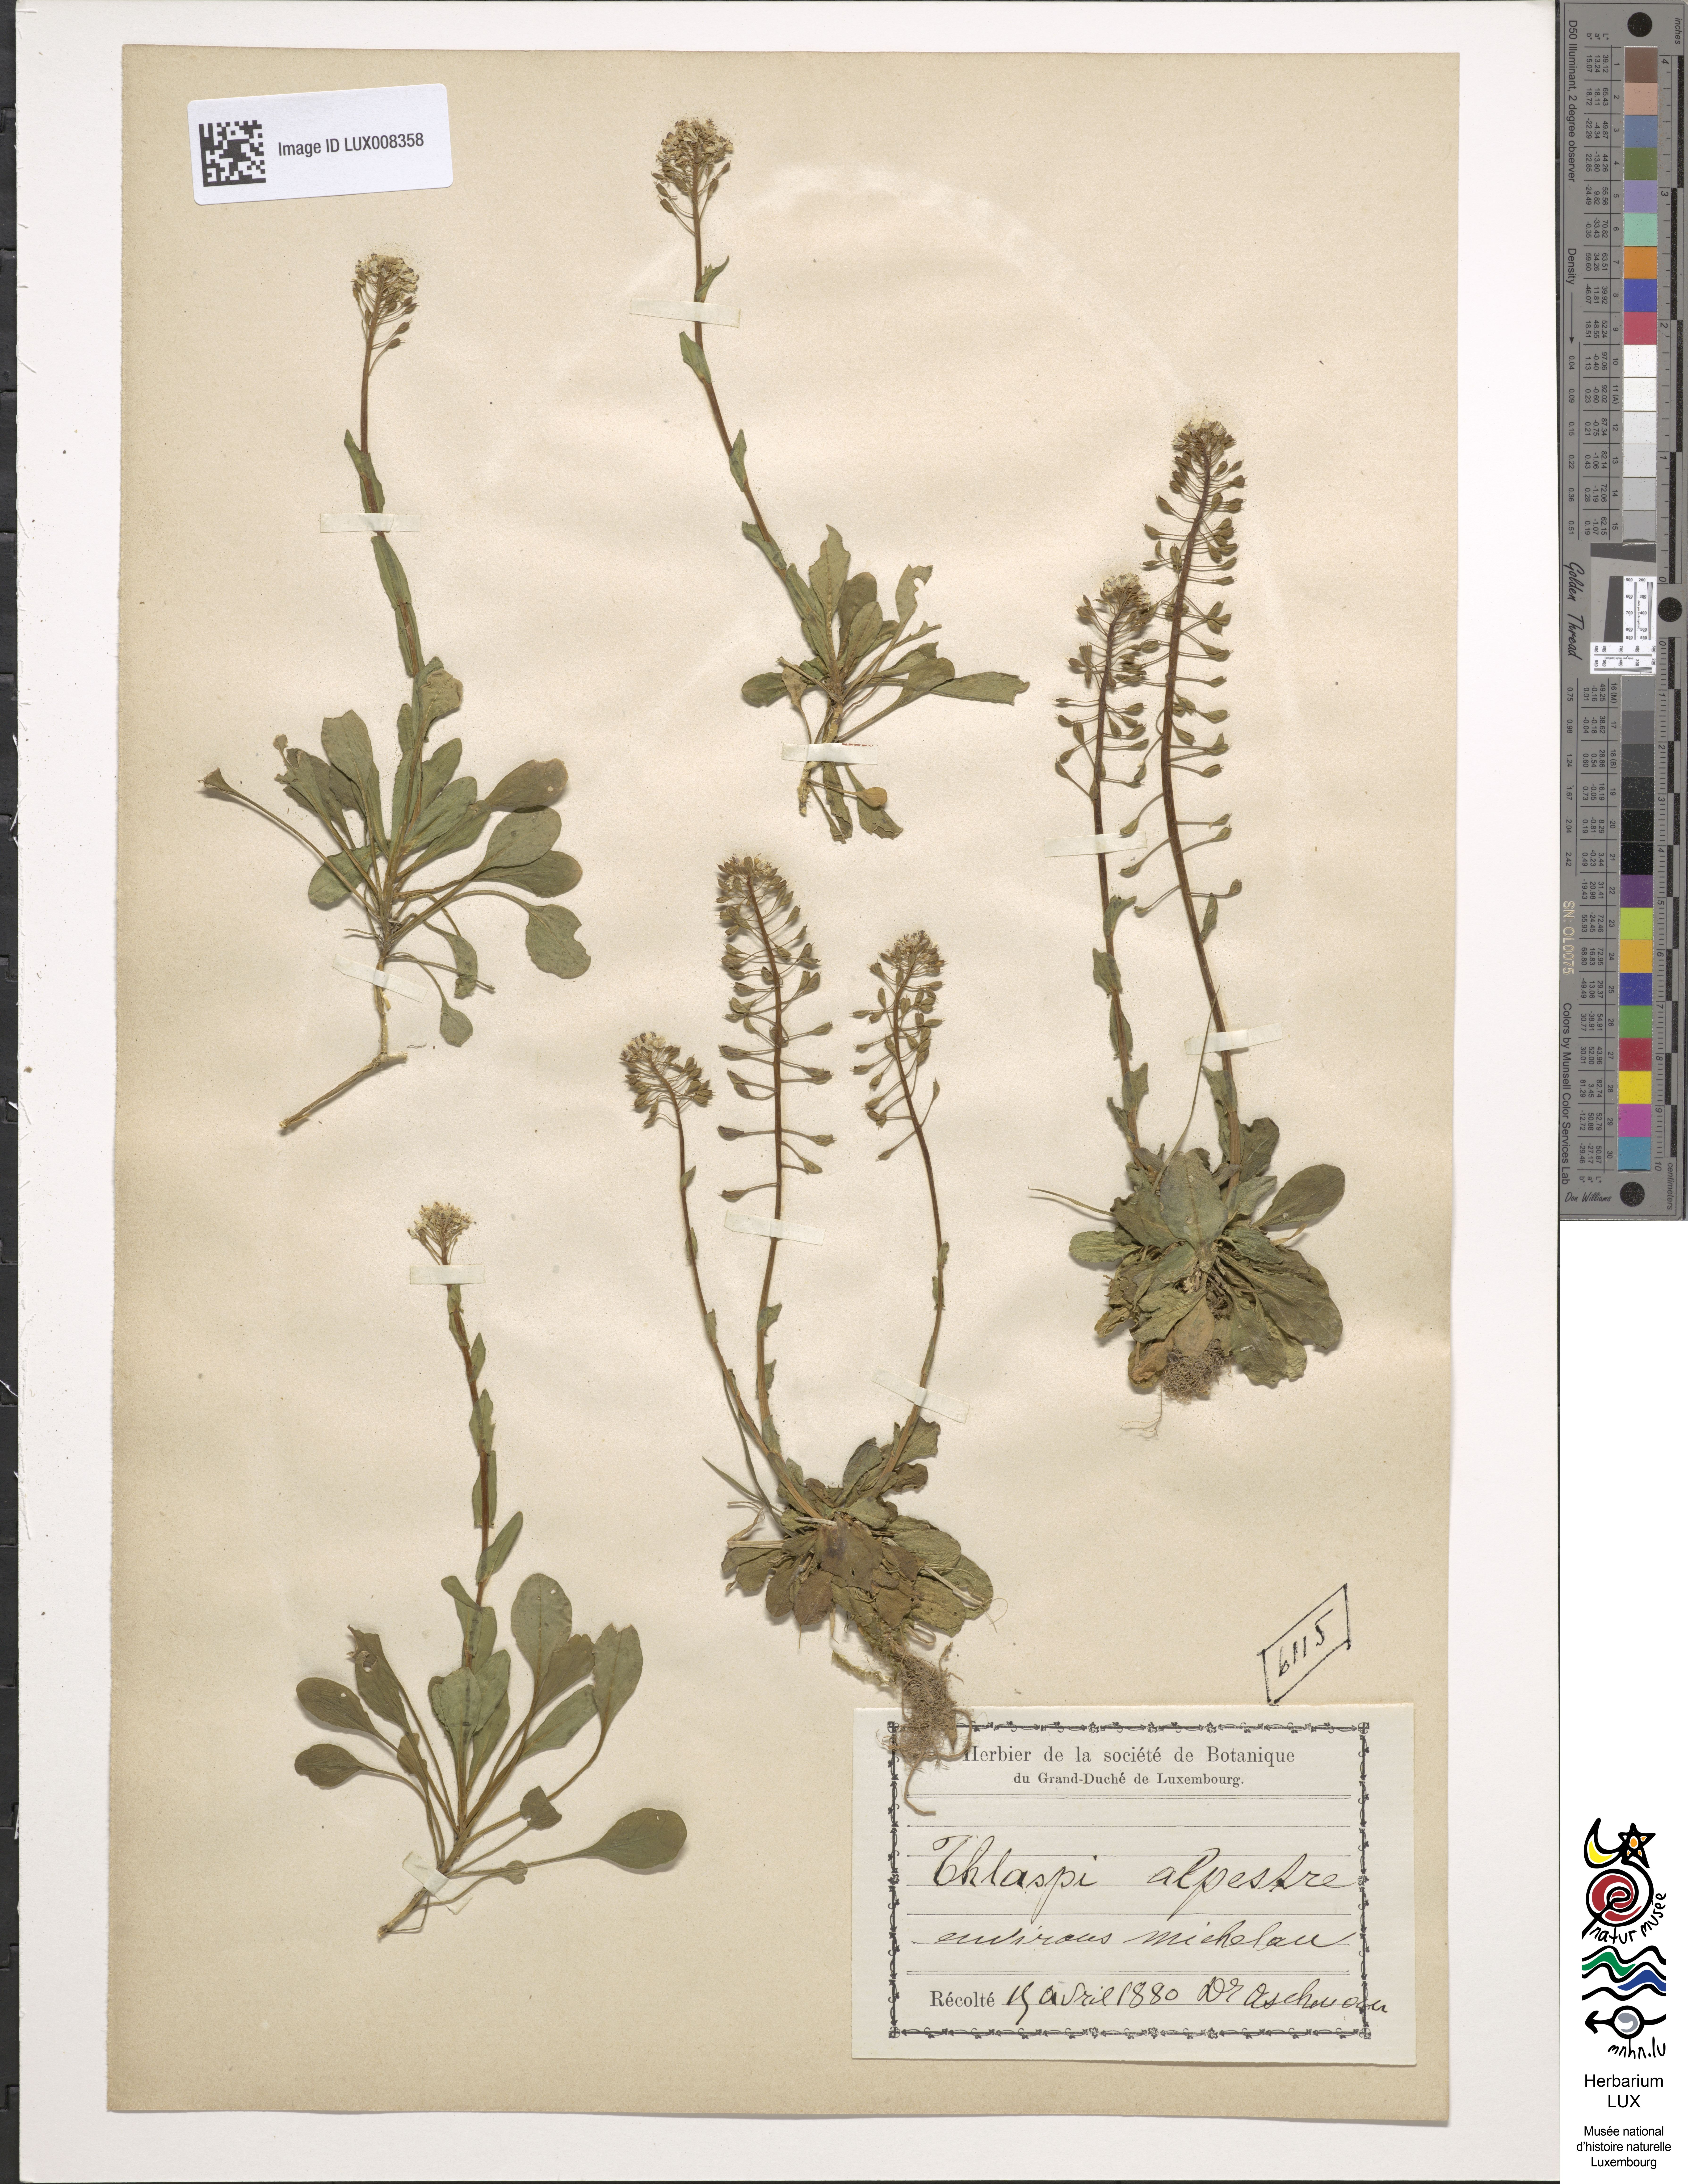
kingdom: Plantae
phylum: Tracheophyta
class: Magnoliopsida
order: Brassicales
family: Brassicaceae
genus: Noccaea
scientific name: Noccaea alpestris
